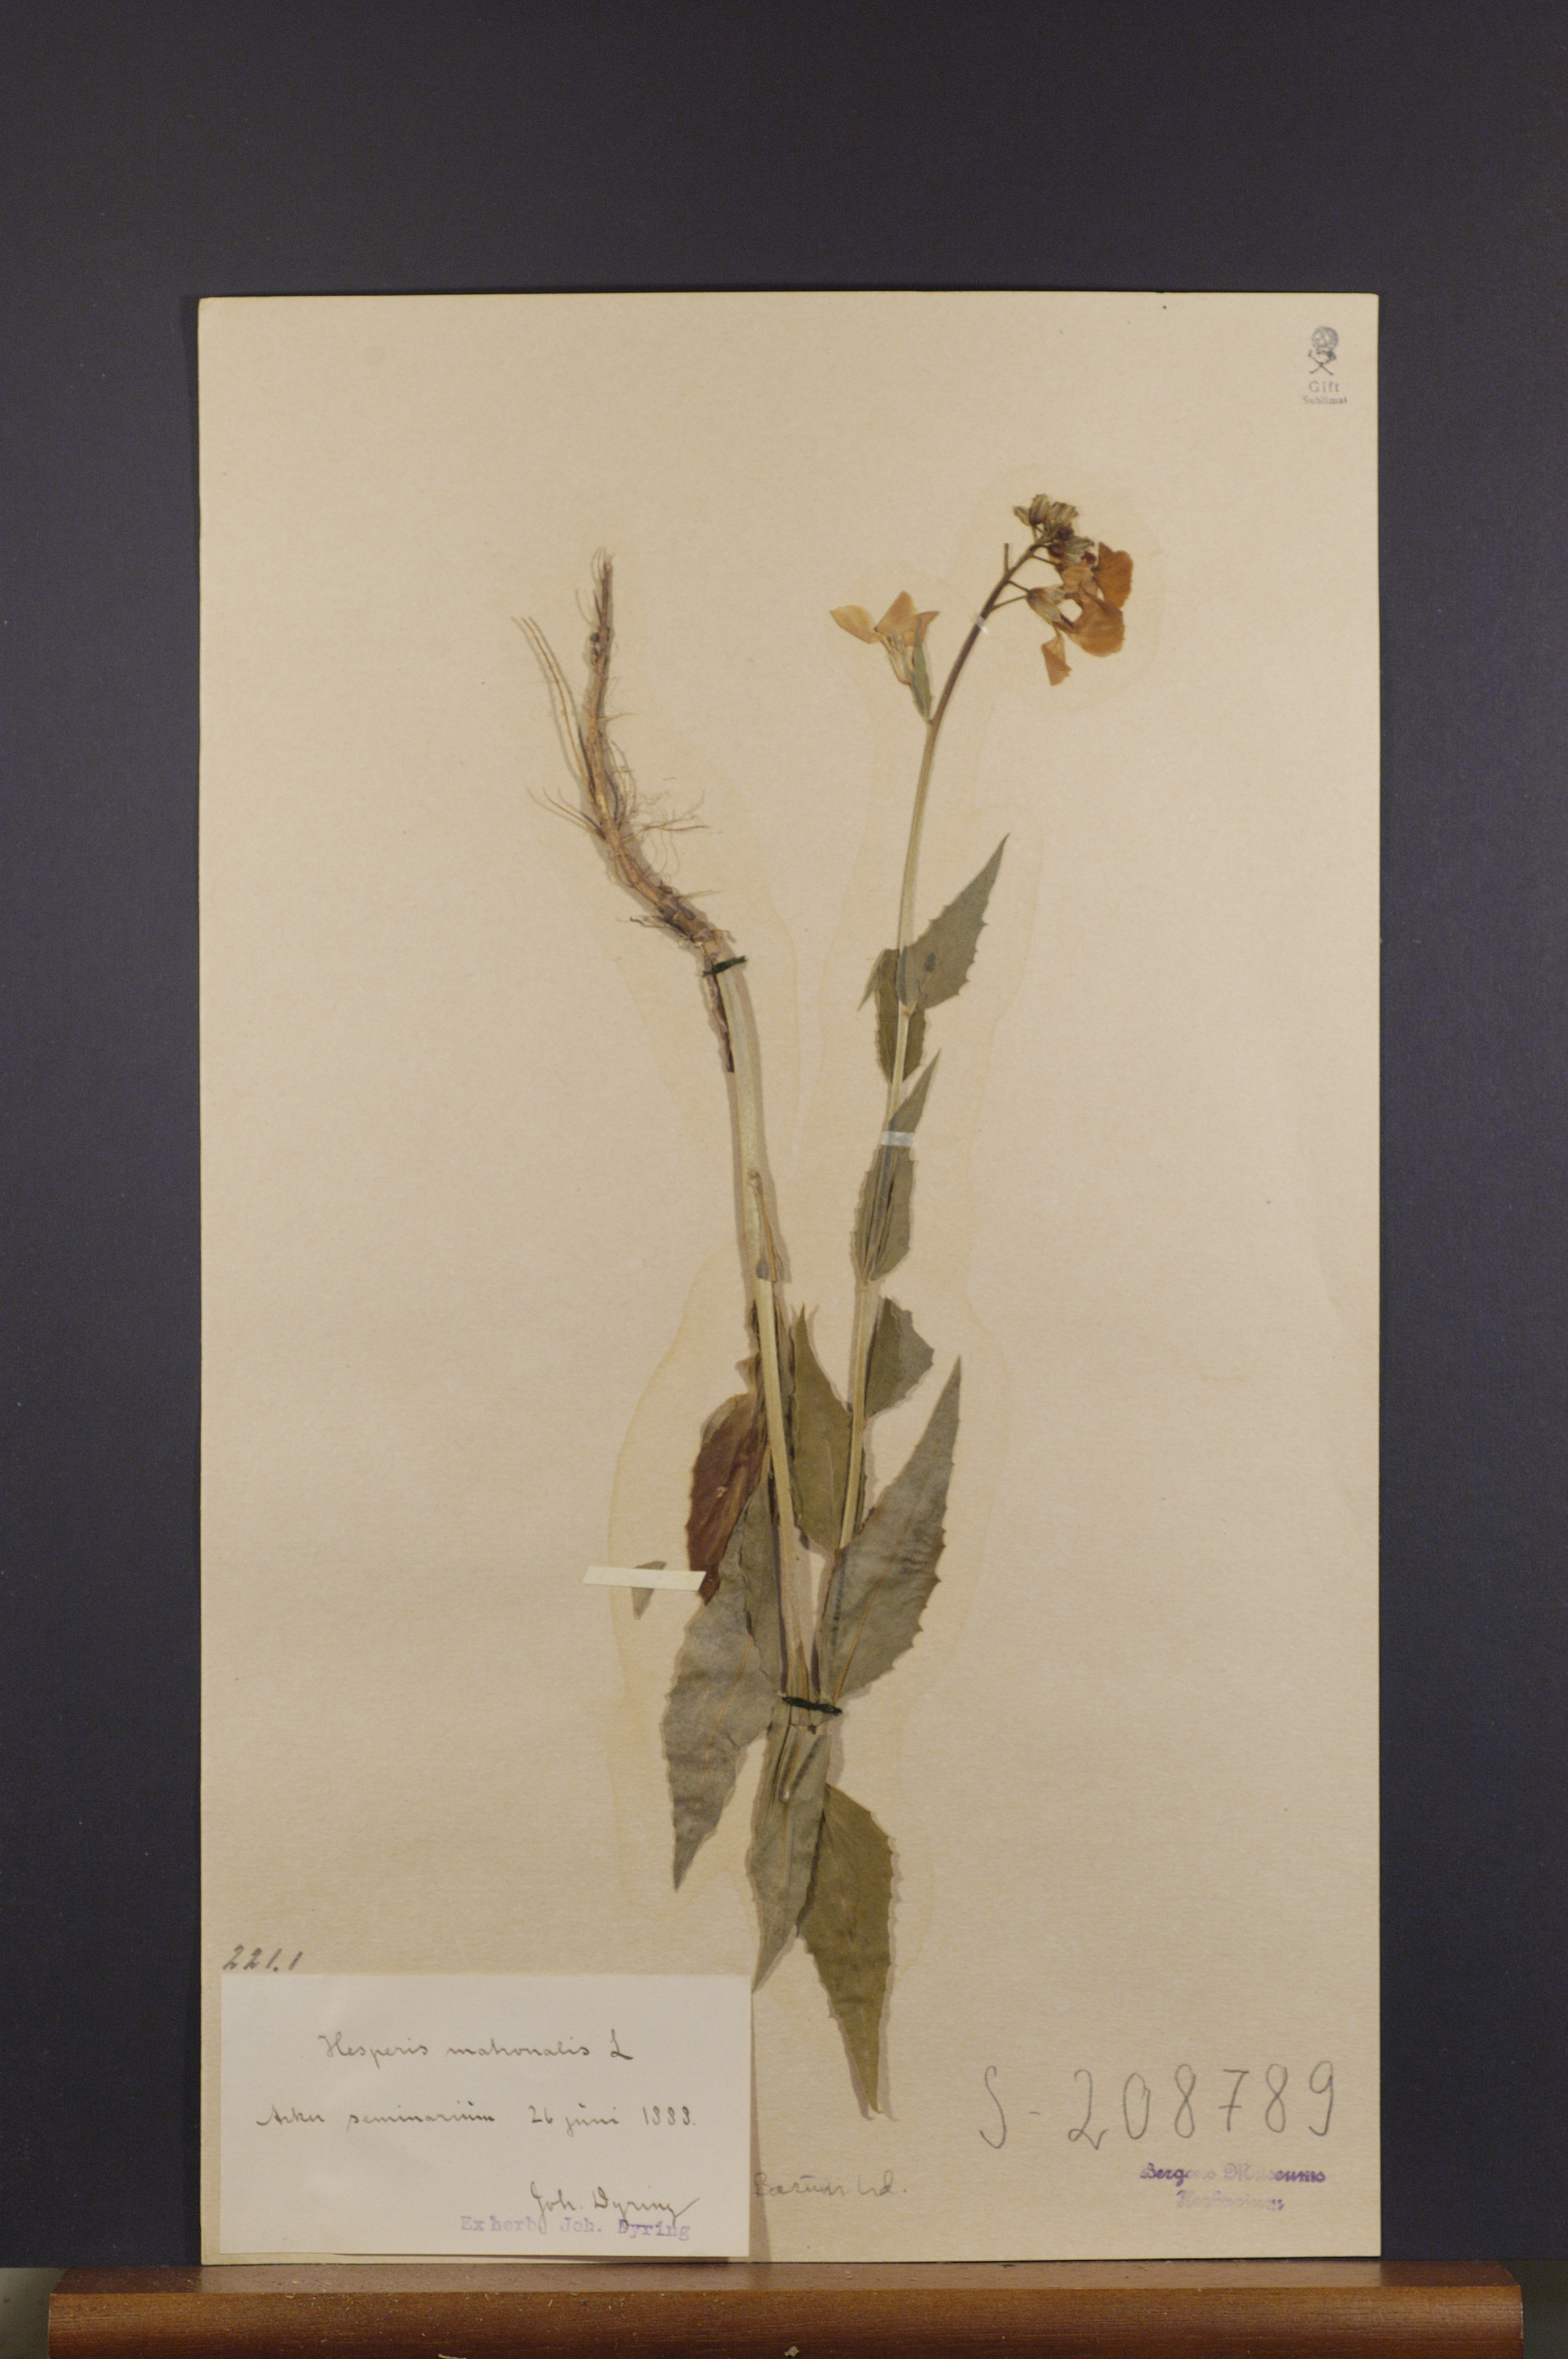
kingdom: Plantae
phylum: Tracheophyta
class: Magnoliopsida
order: Brassicales
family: Brassicaceae
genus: Hesperis
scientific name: Hesperis matronalis
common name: Dame's-violet
